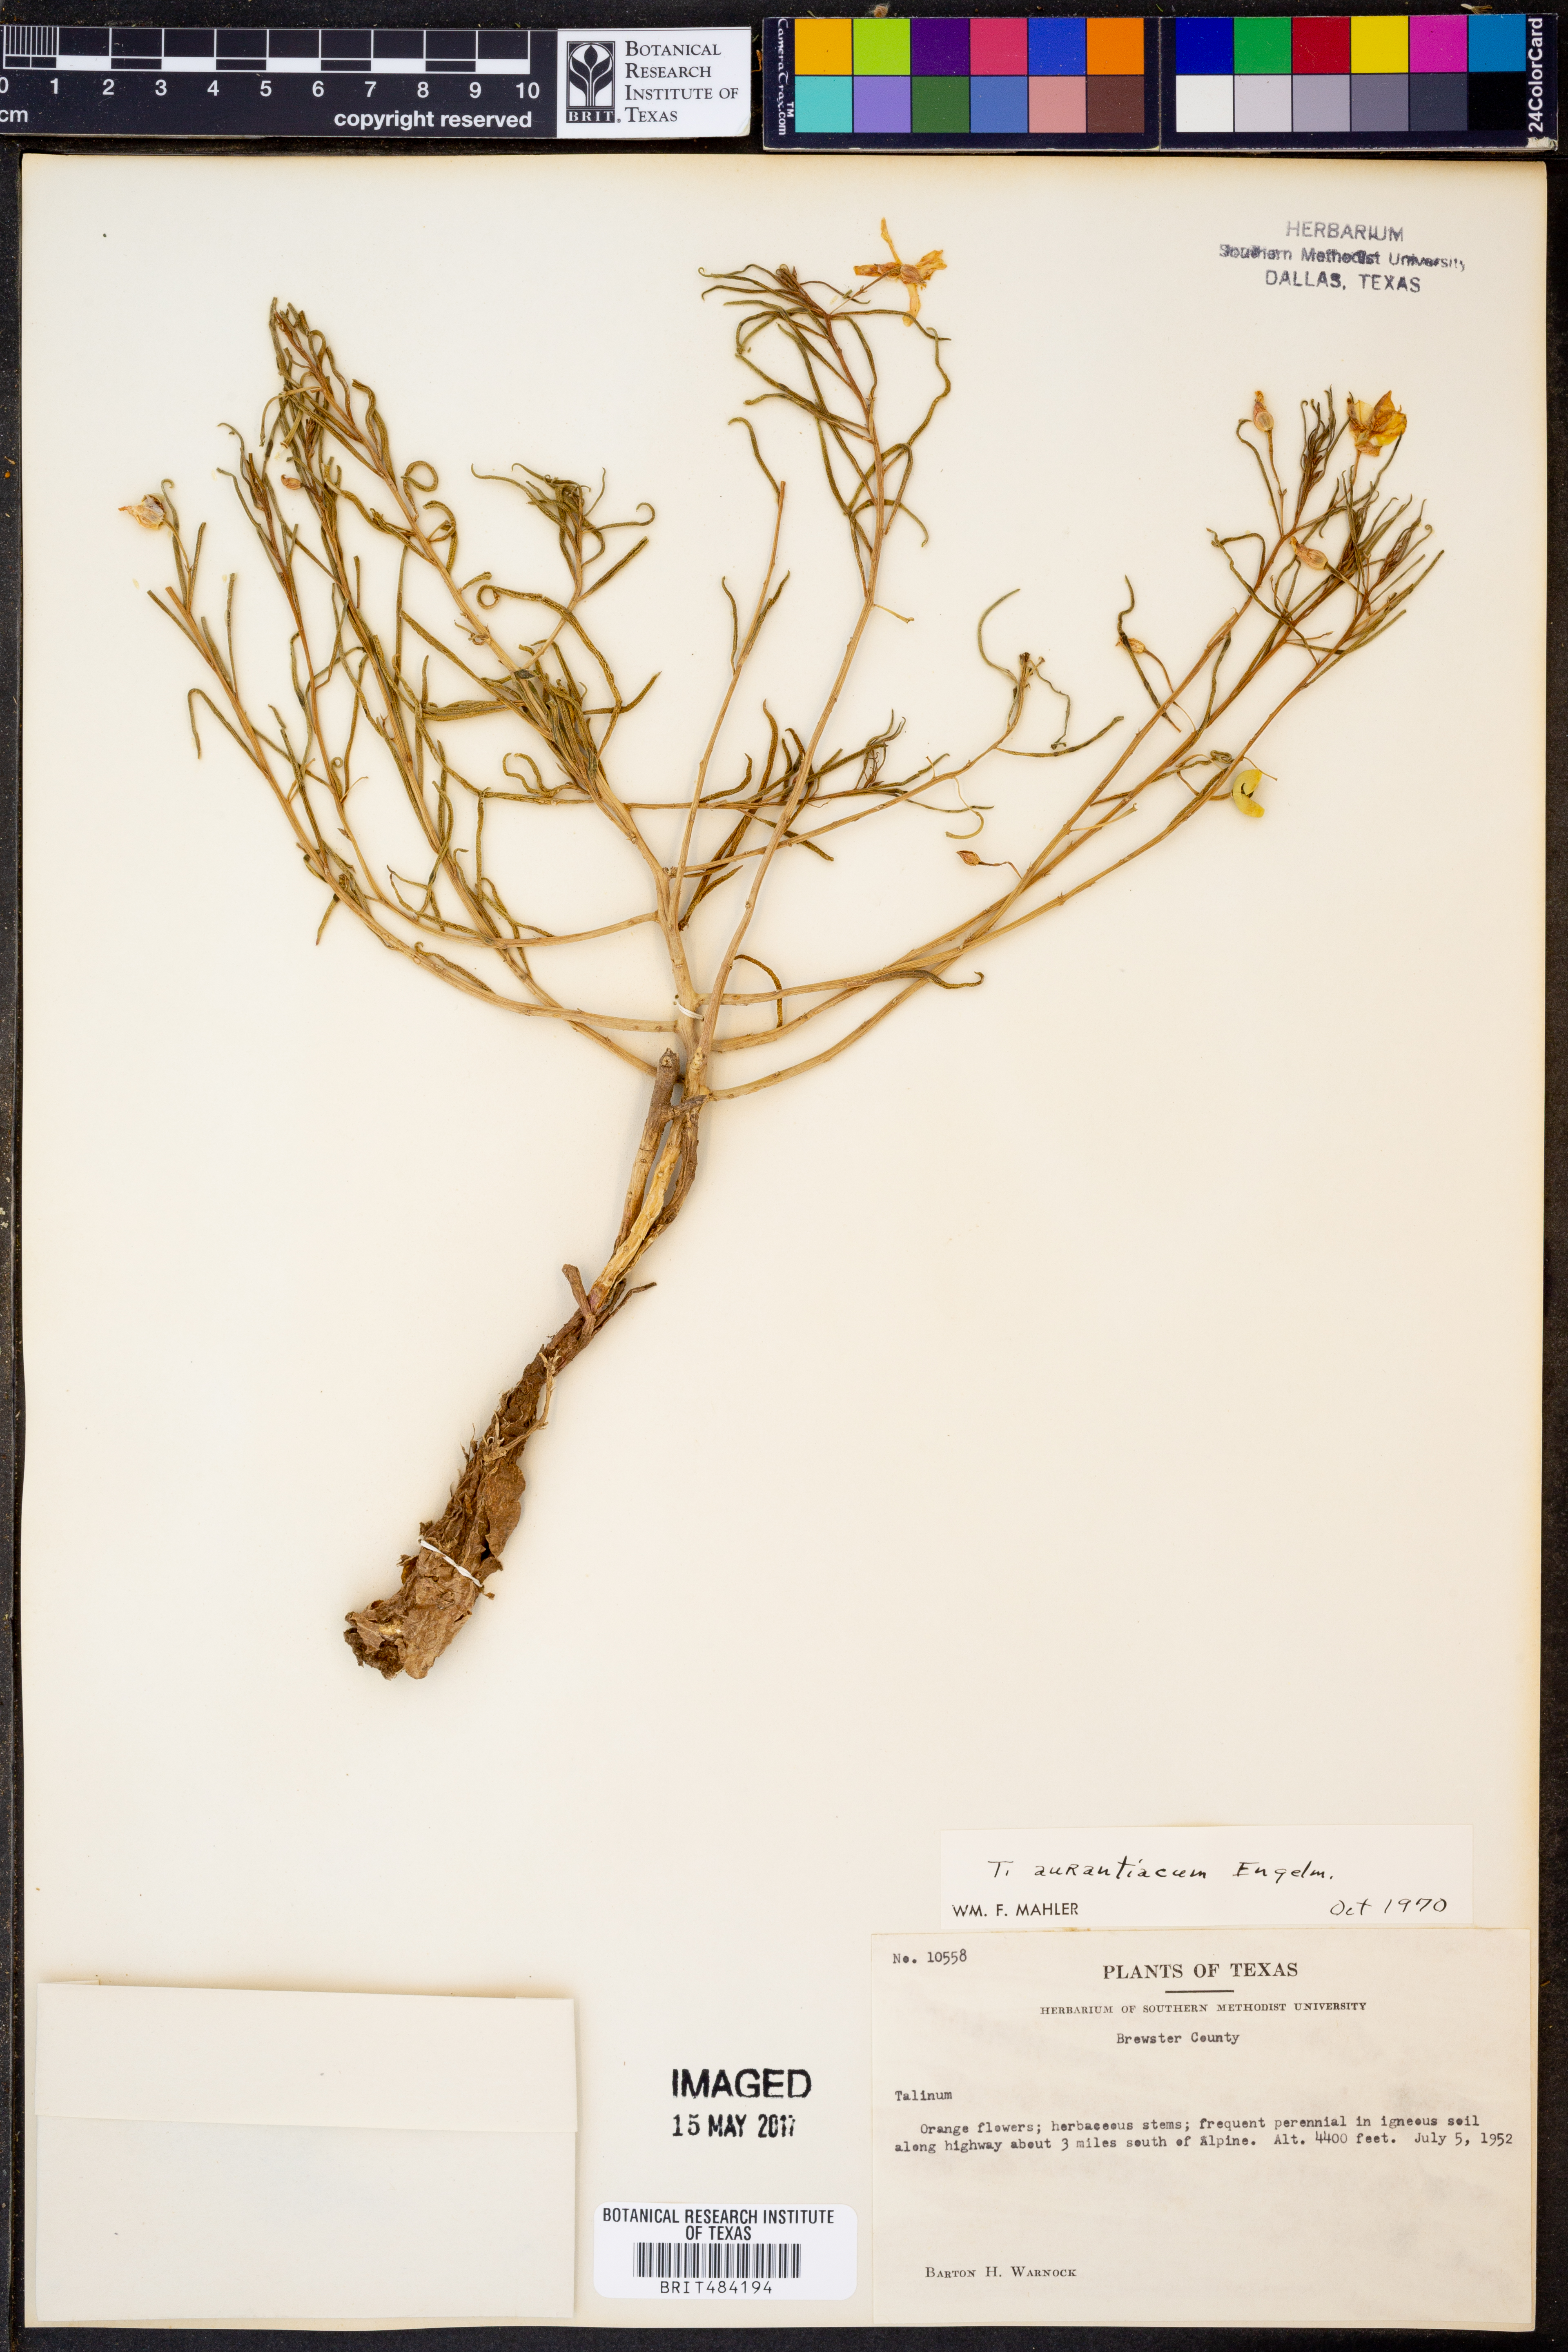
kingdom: Plantae
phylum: Tracheophyta
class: Magnoliopsida
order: Caryophyllales
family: Montiaceae
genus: Phemeranthus
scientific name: Phemeranthus aurantiacus
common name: Orange fameflower
